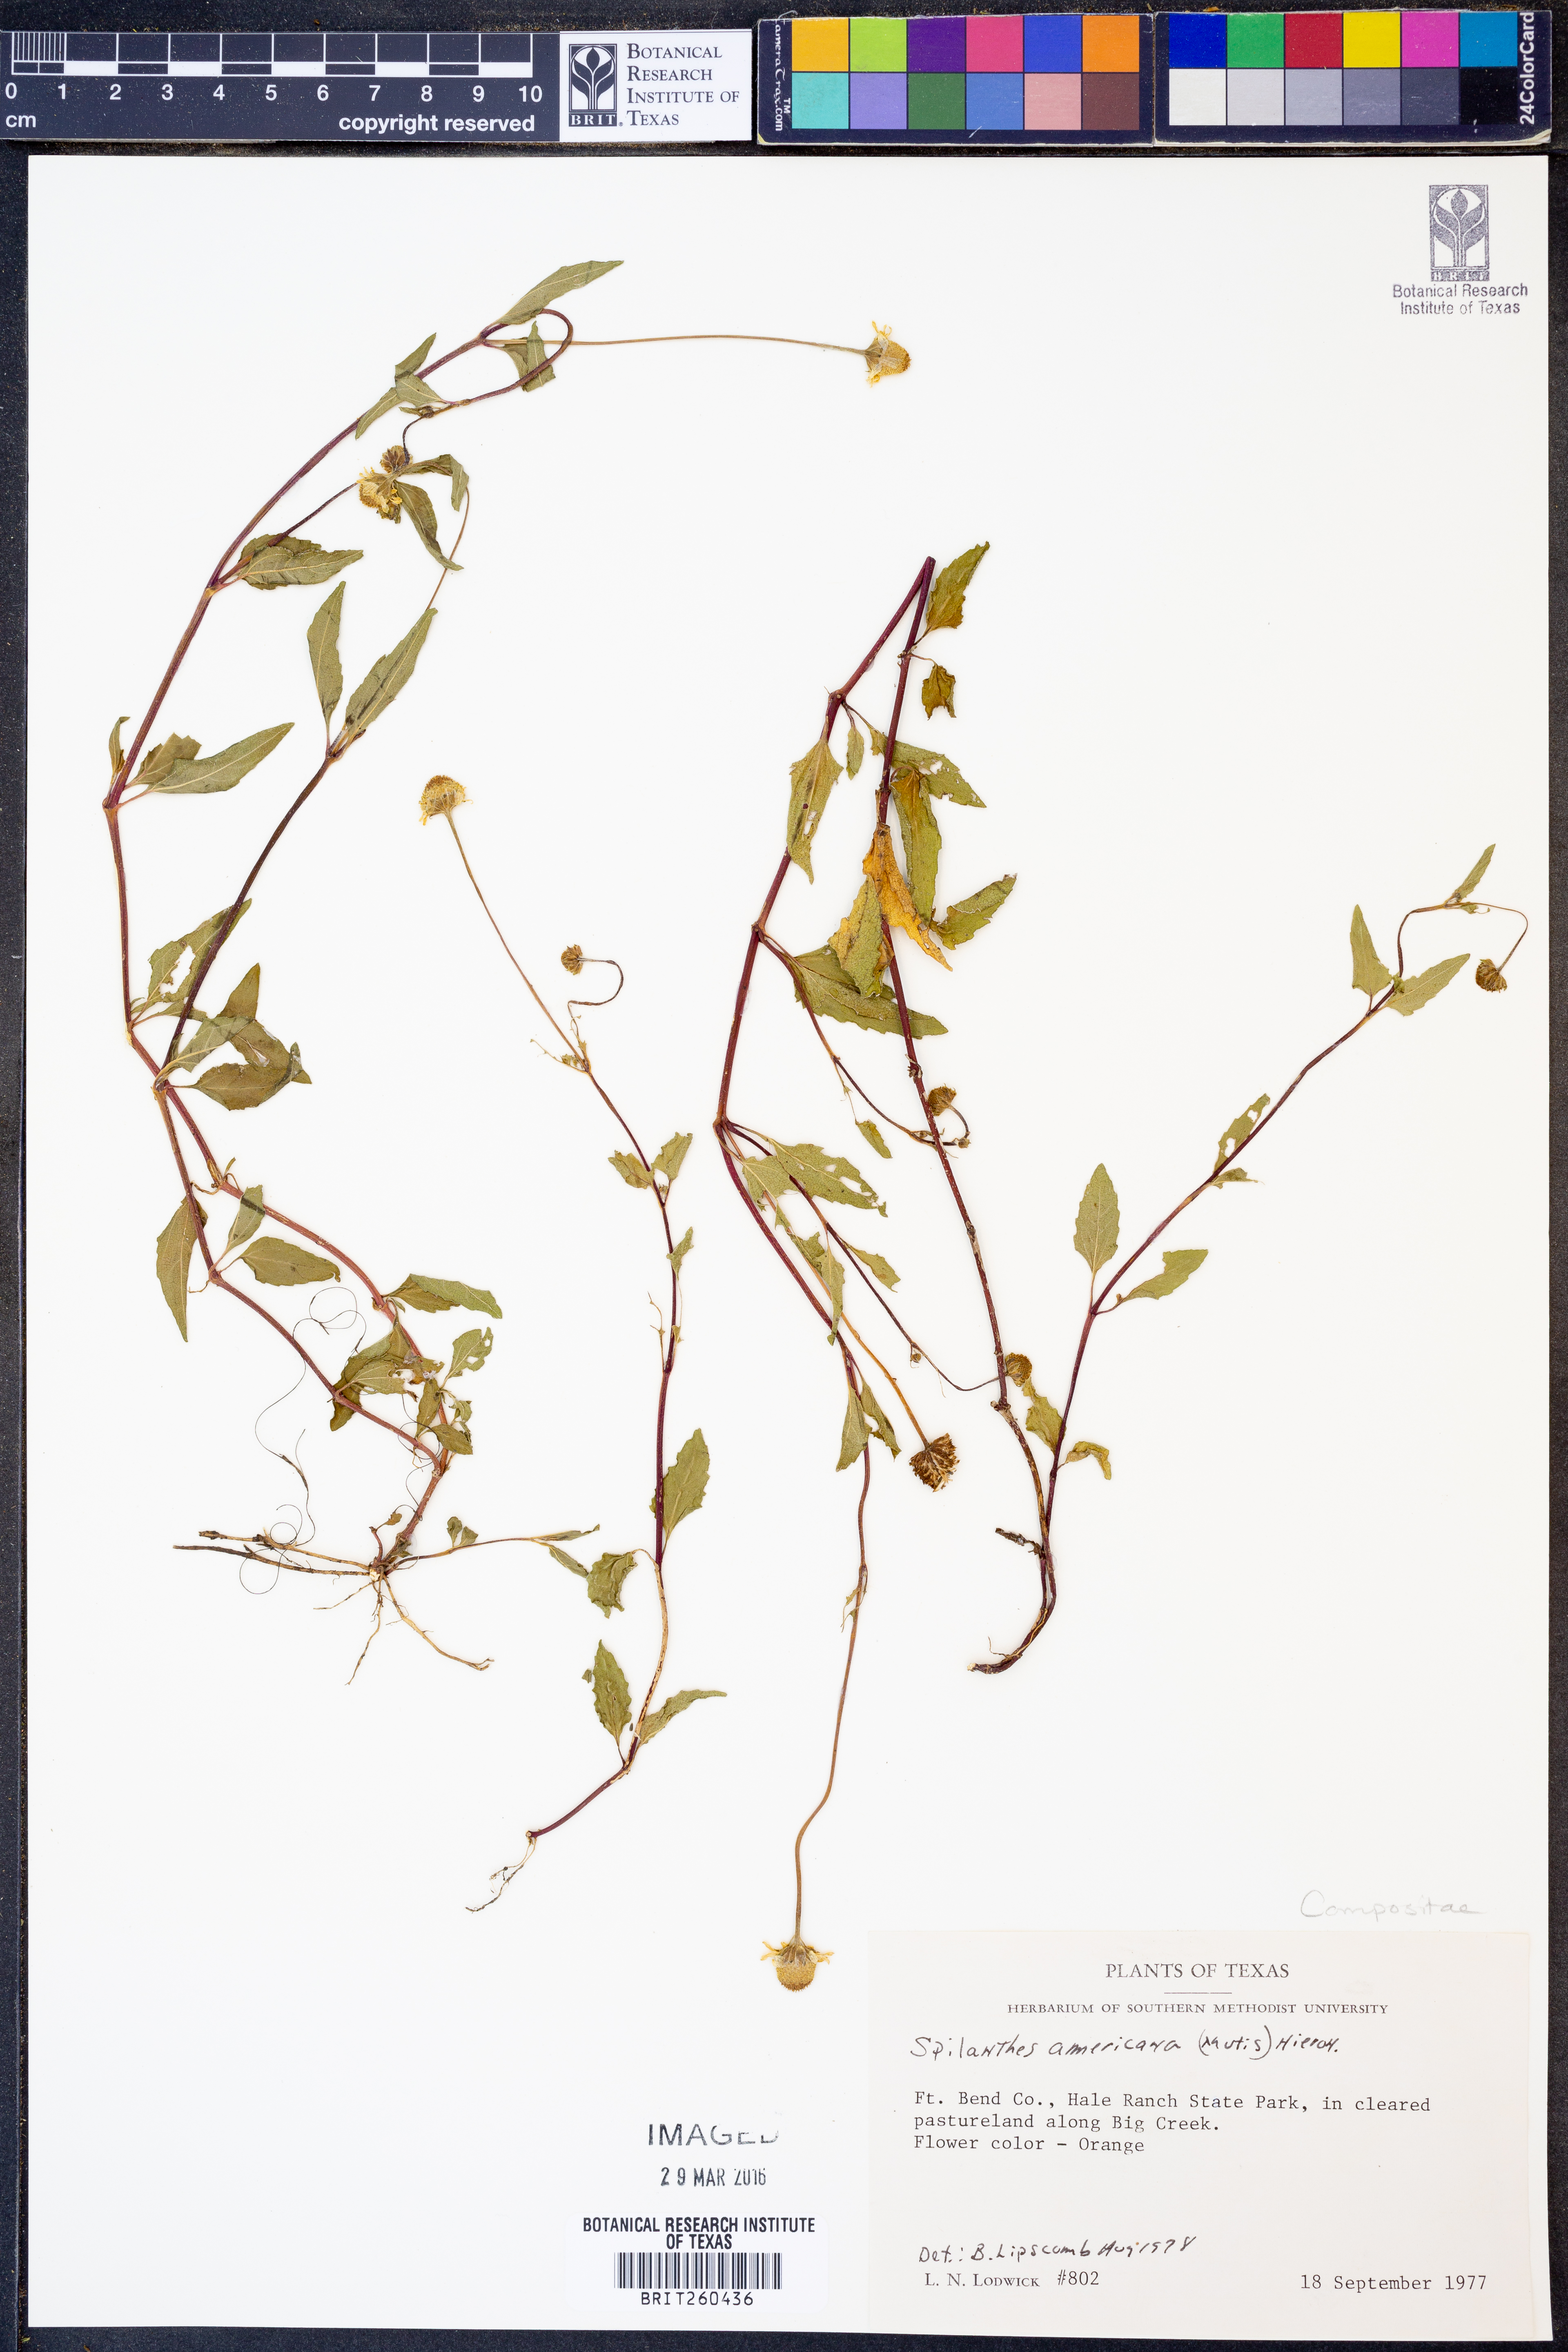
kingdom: Plantae
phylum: Tracheophyta
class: Magnoliopsida
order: Asterales
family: Asteraceae
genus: Acmella
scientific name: Acmella
